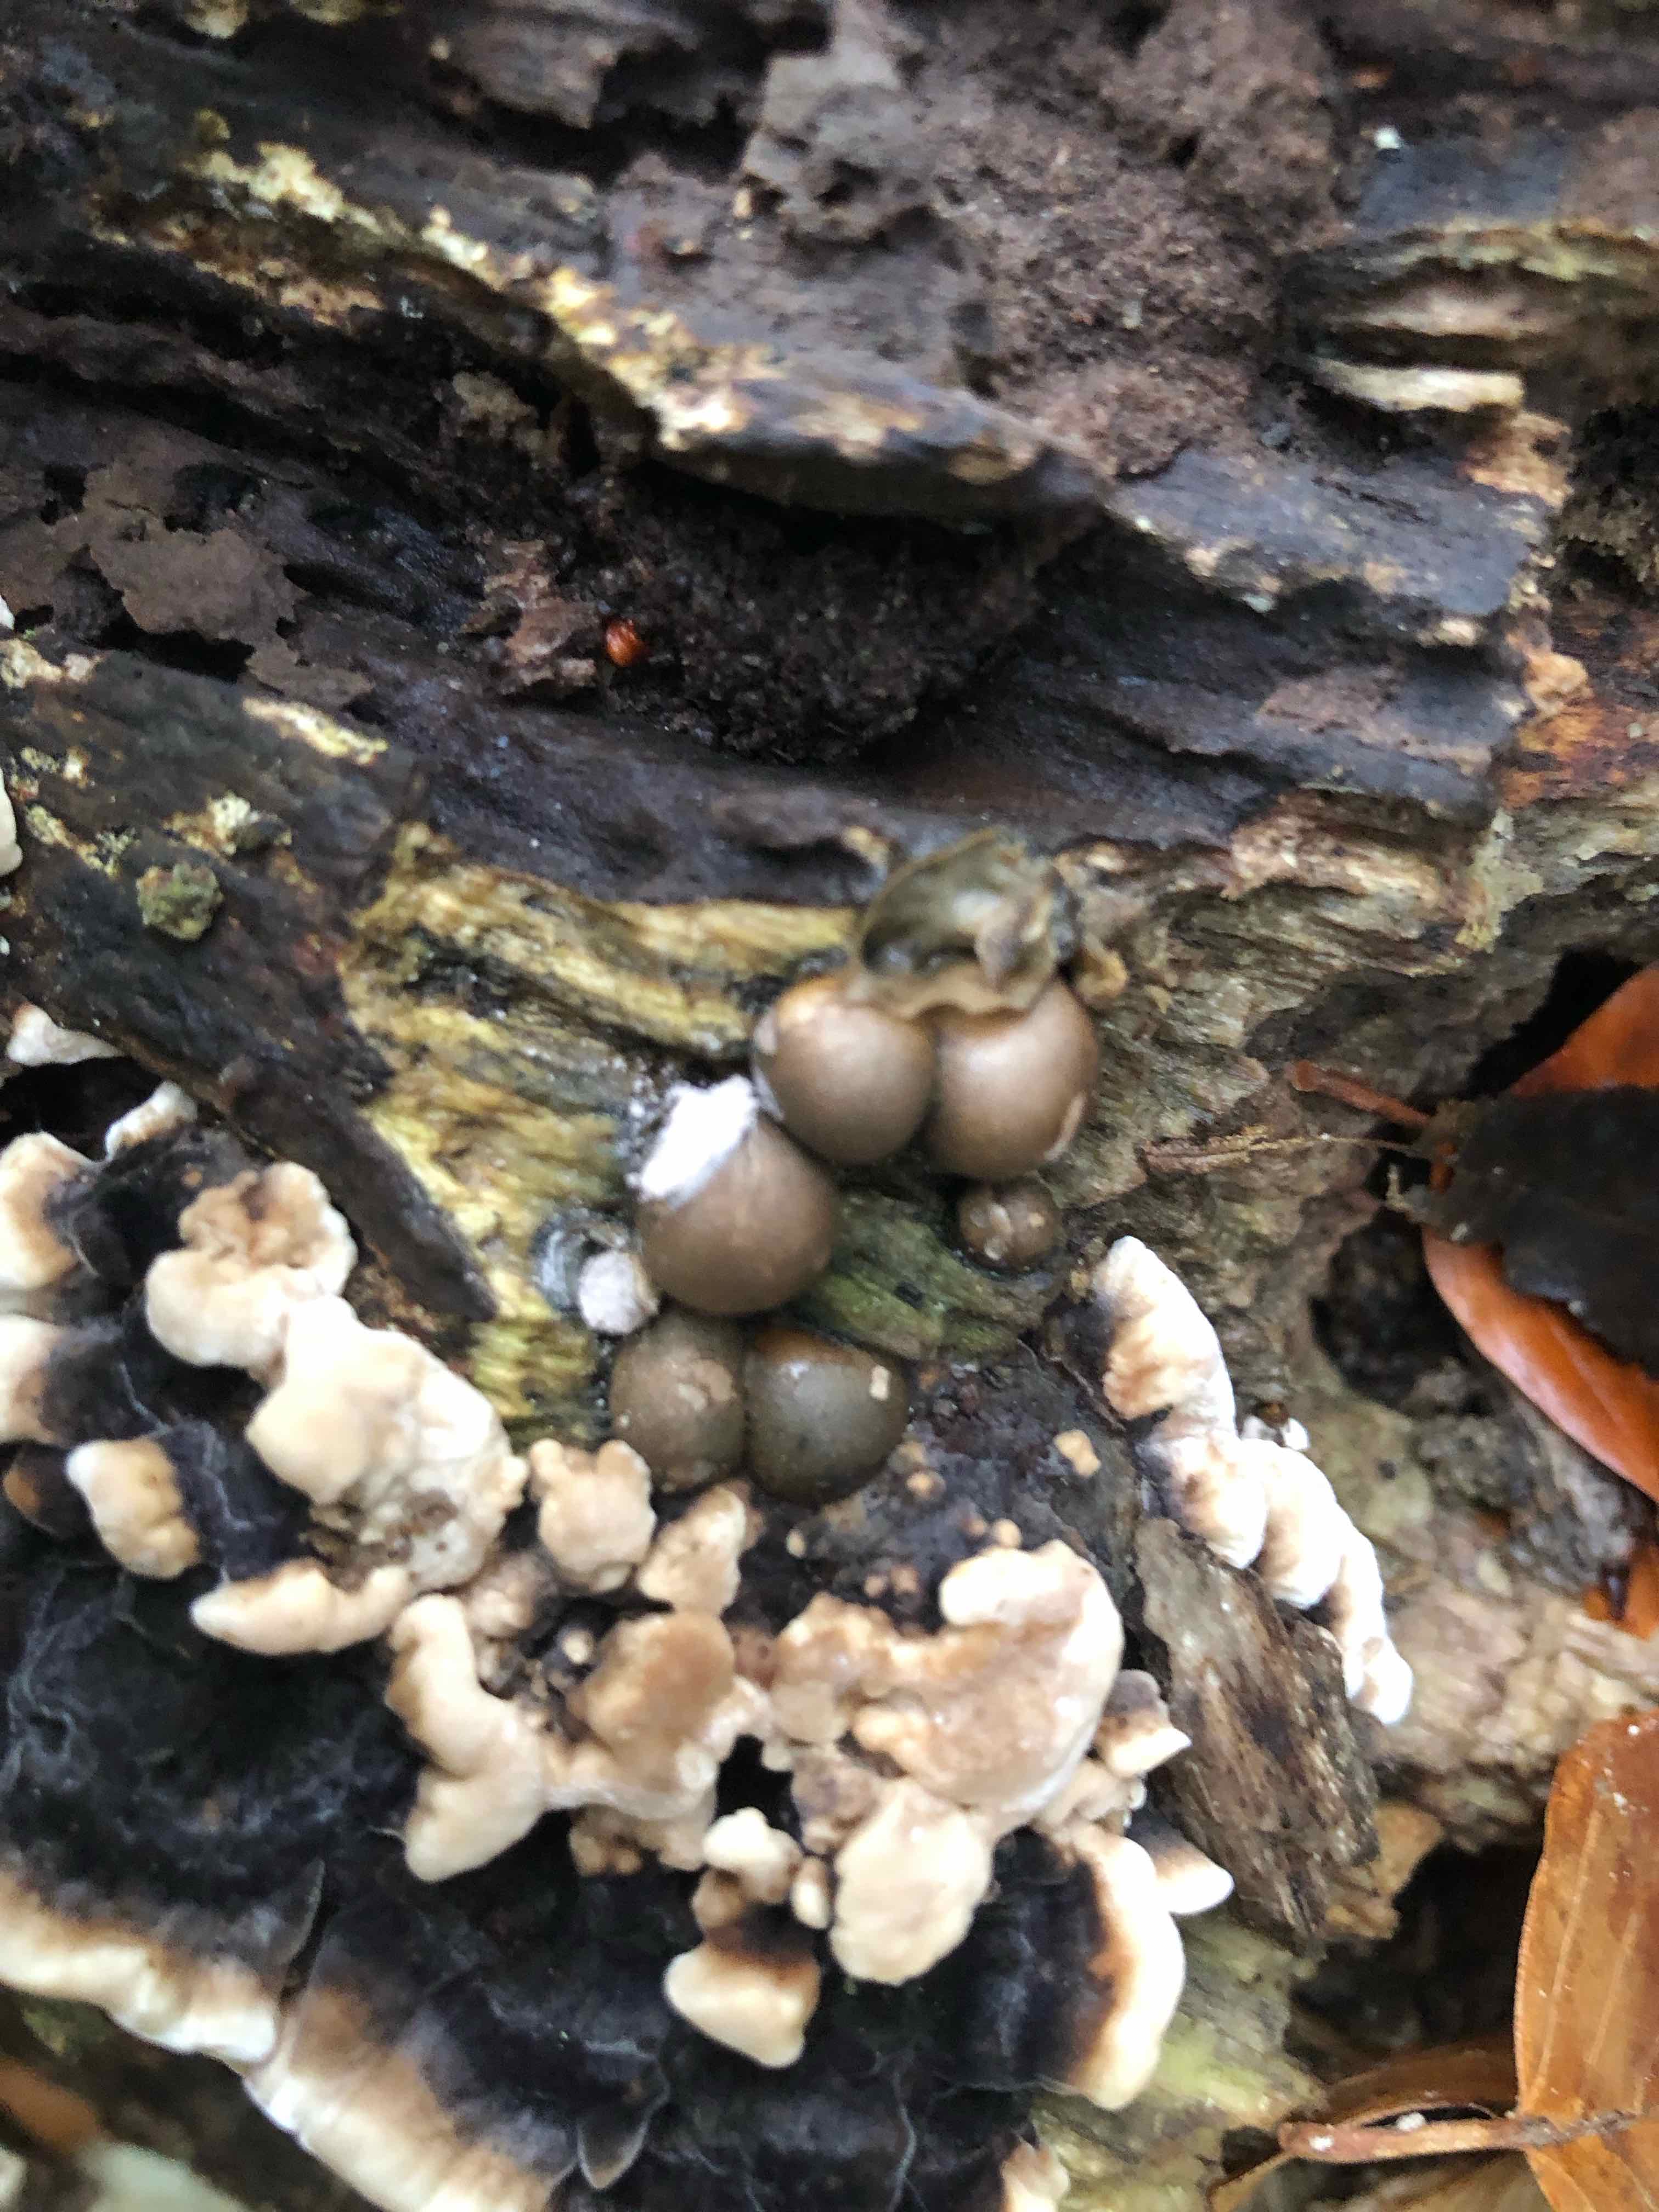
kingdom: Protozoa
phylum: Mycetozoa
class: Myxomycetes
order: Cribrariales
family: Tubiferaceae
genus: Lycogala
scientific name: Lycogala epidendrum
